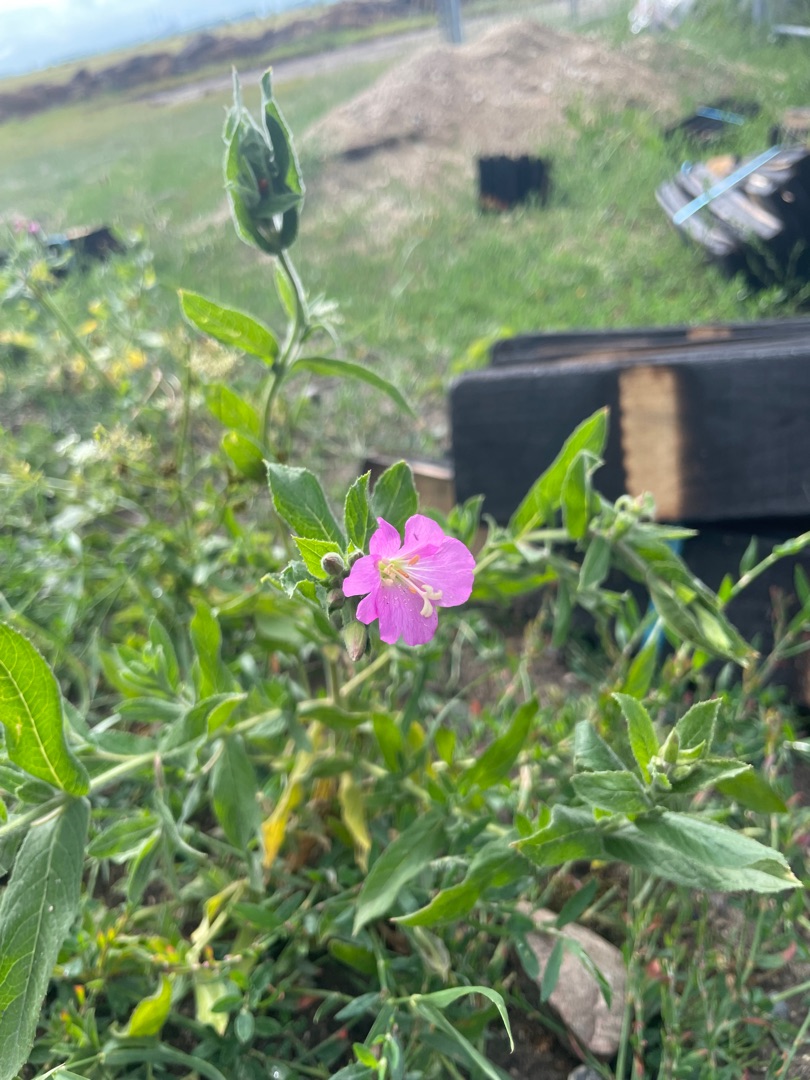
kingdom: Plantae
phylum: Tracheophyta
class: Magnoliopsida
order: Myrtales
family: Onagraceae
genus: Epilobium
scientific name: Epilobium hirsutum
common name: Lådden dueurt
